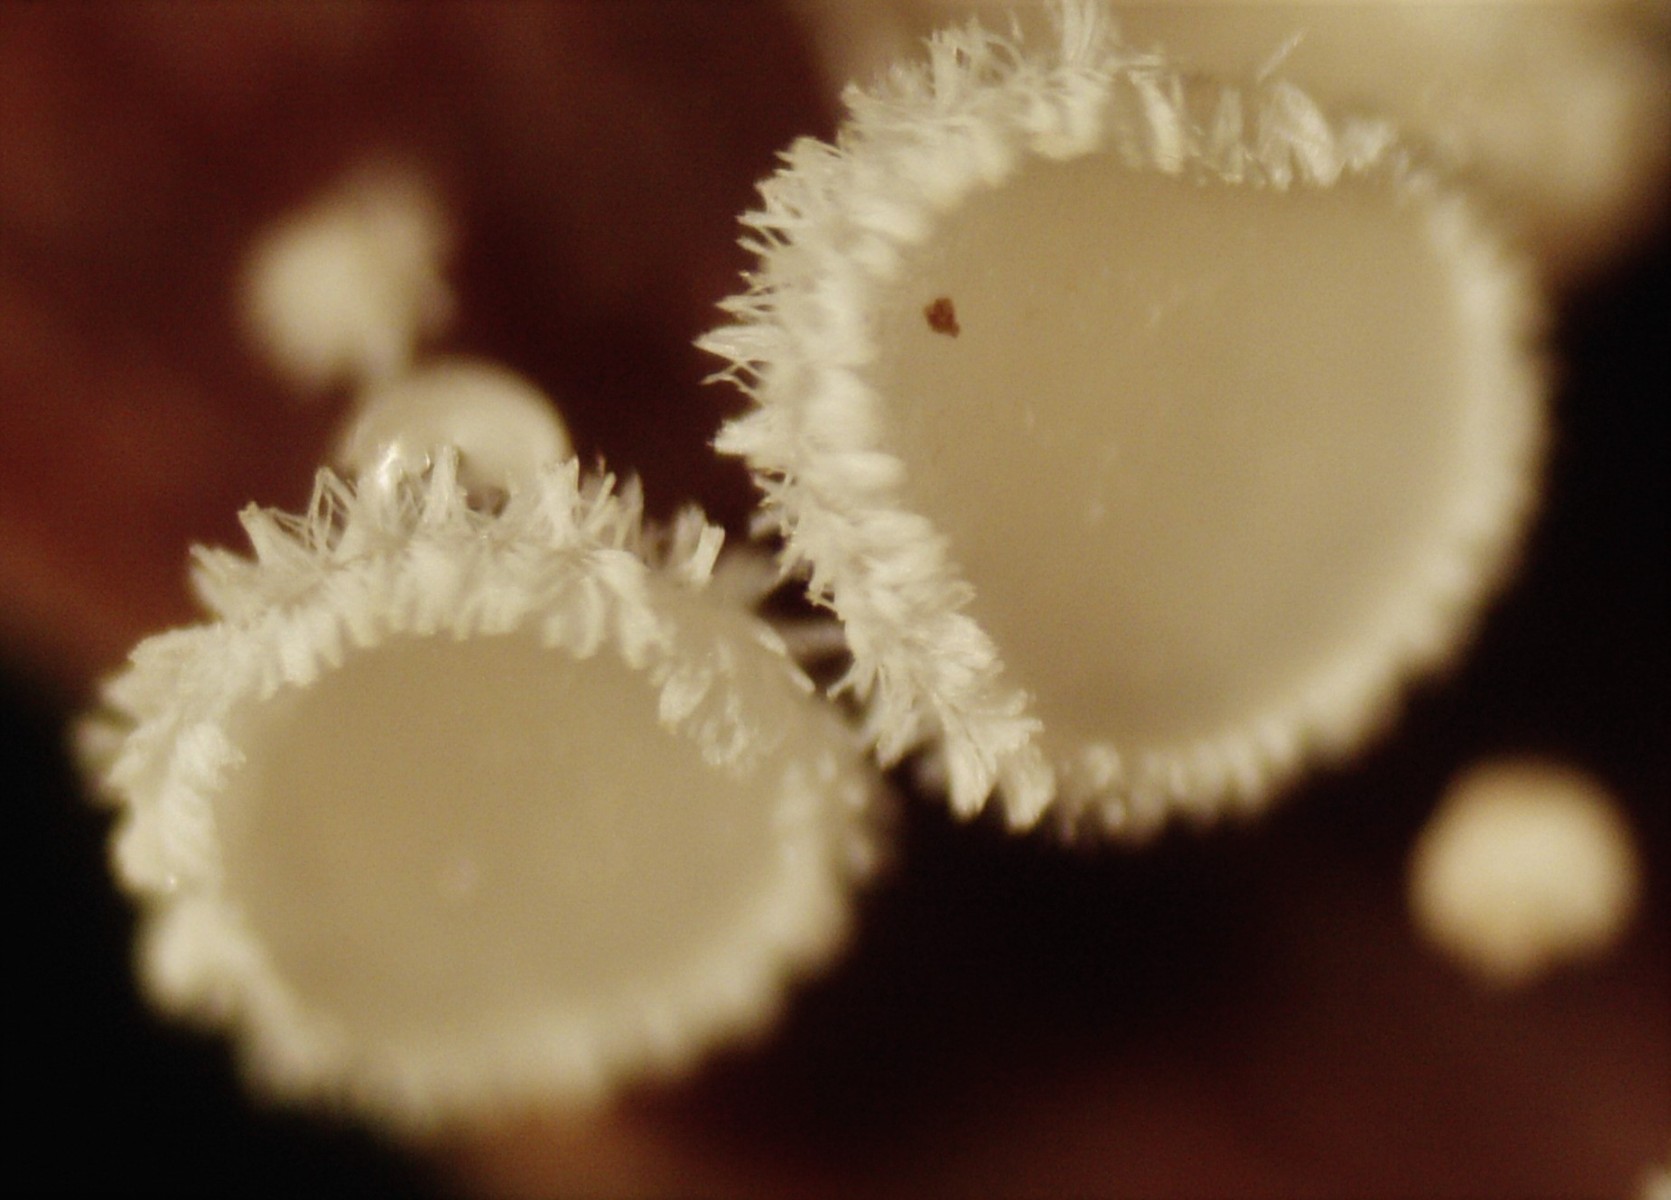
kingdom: Fungi
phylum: Ascomycota
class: Leotiomycetes
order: Helotiales
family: Lachnaceae
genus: Lachnum
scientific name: Lachnum virgineum
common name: jomfru-frynseskive
